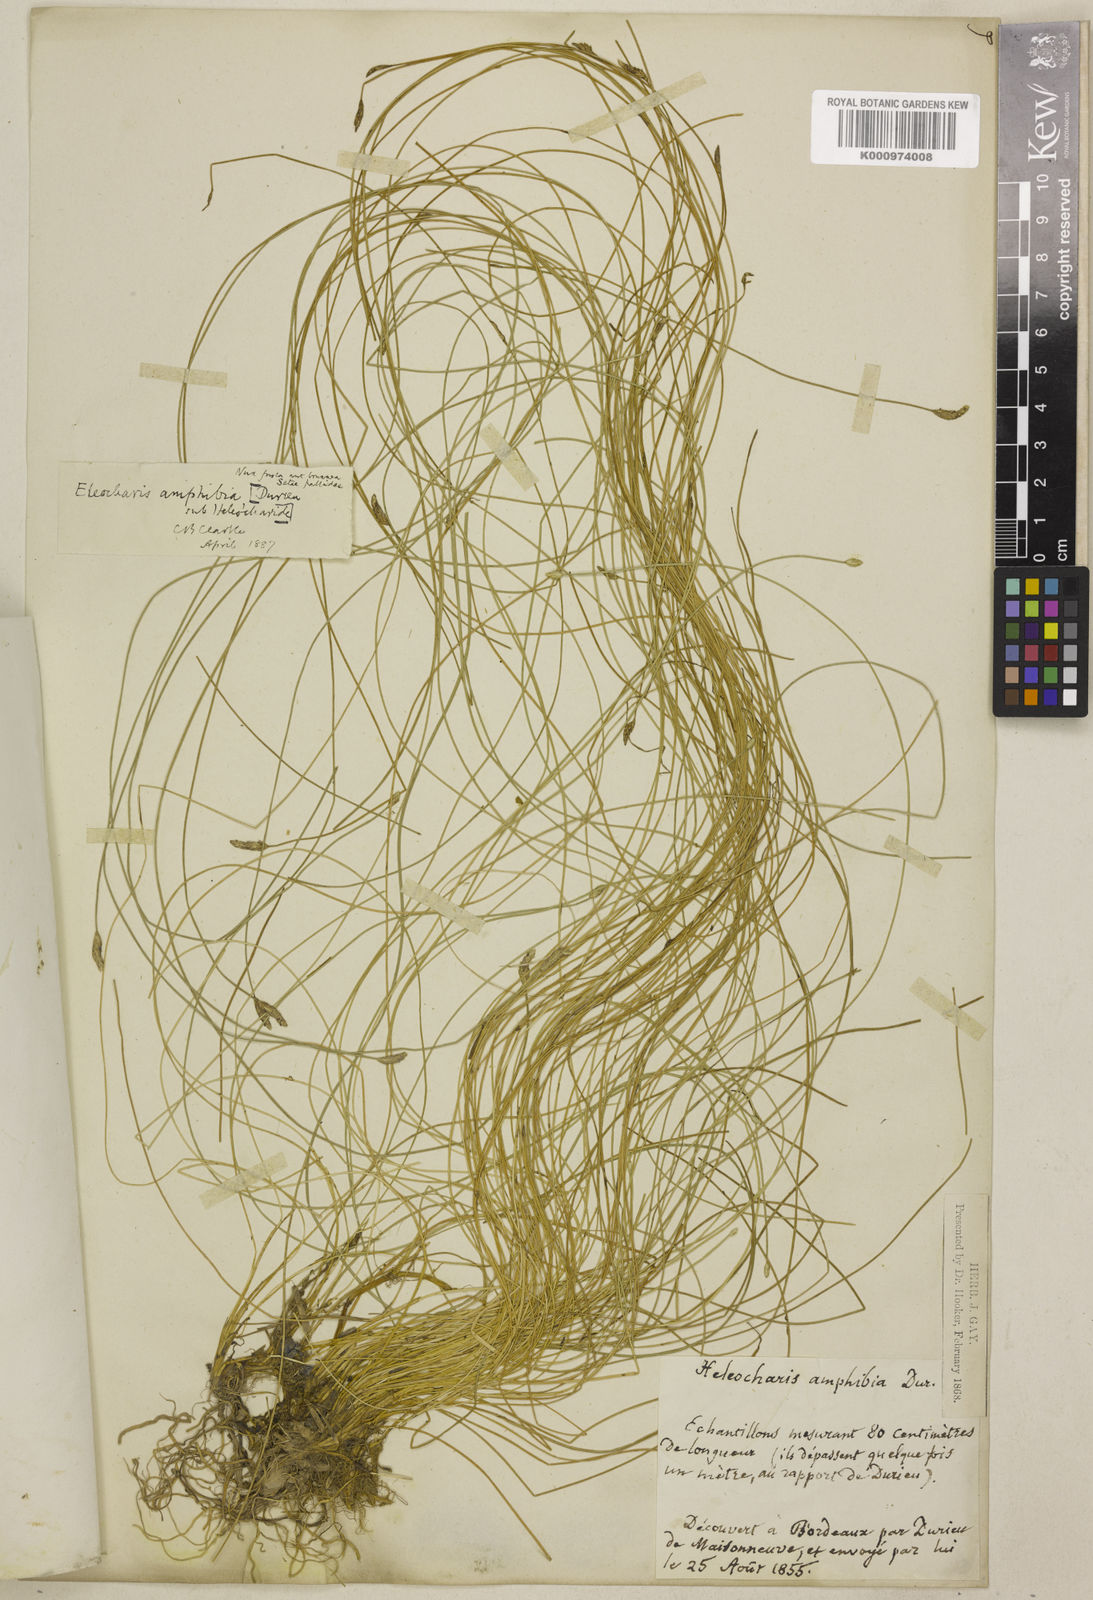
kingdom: Plantae
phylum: Tracheophyta
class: Liliopsida
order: Poales
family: Cyperaceae
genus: Eleocharis
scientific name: Eleocharis bonariensis
